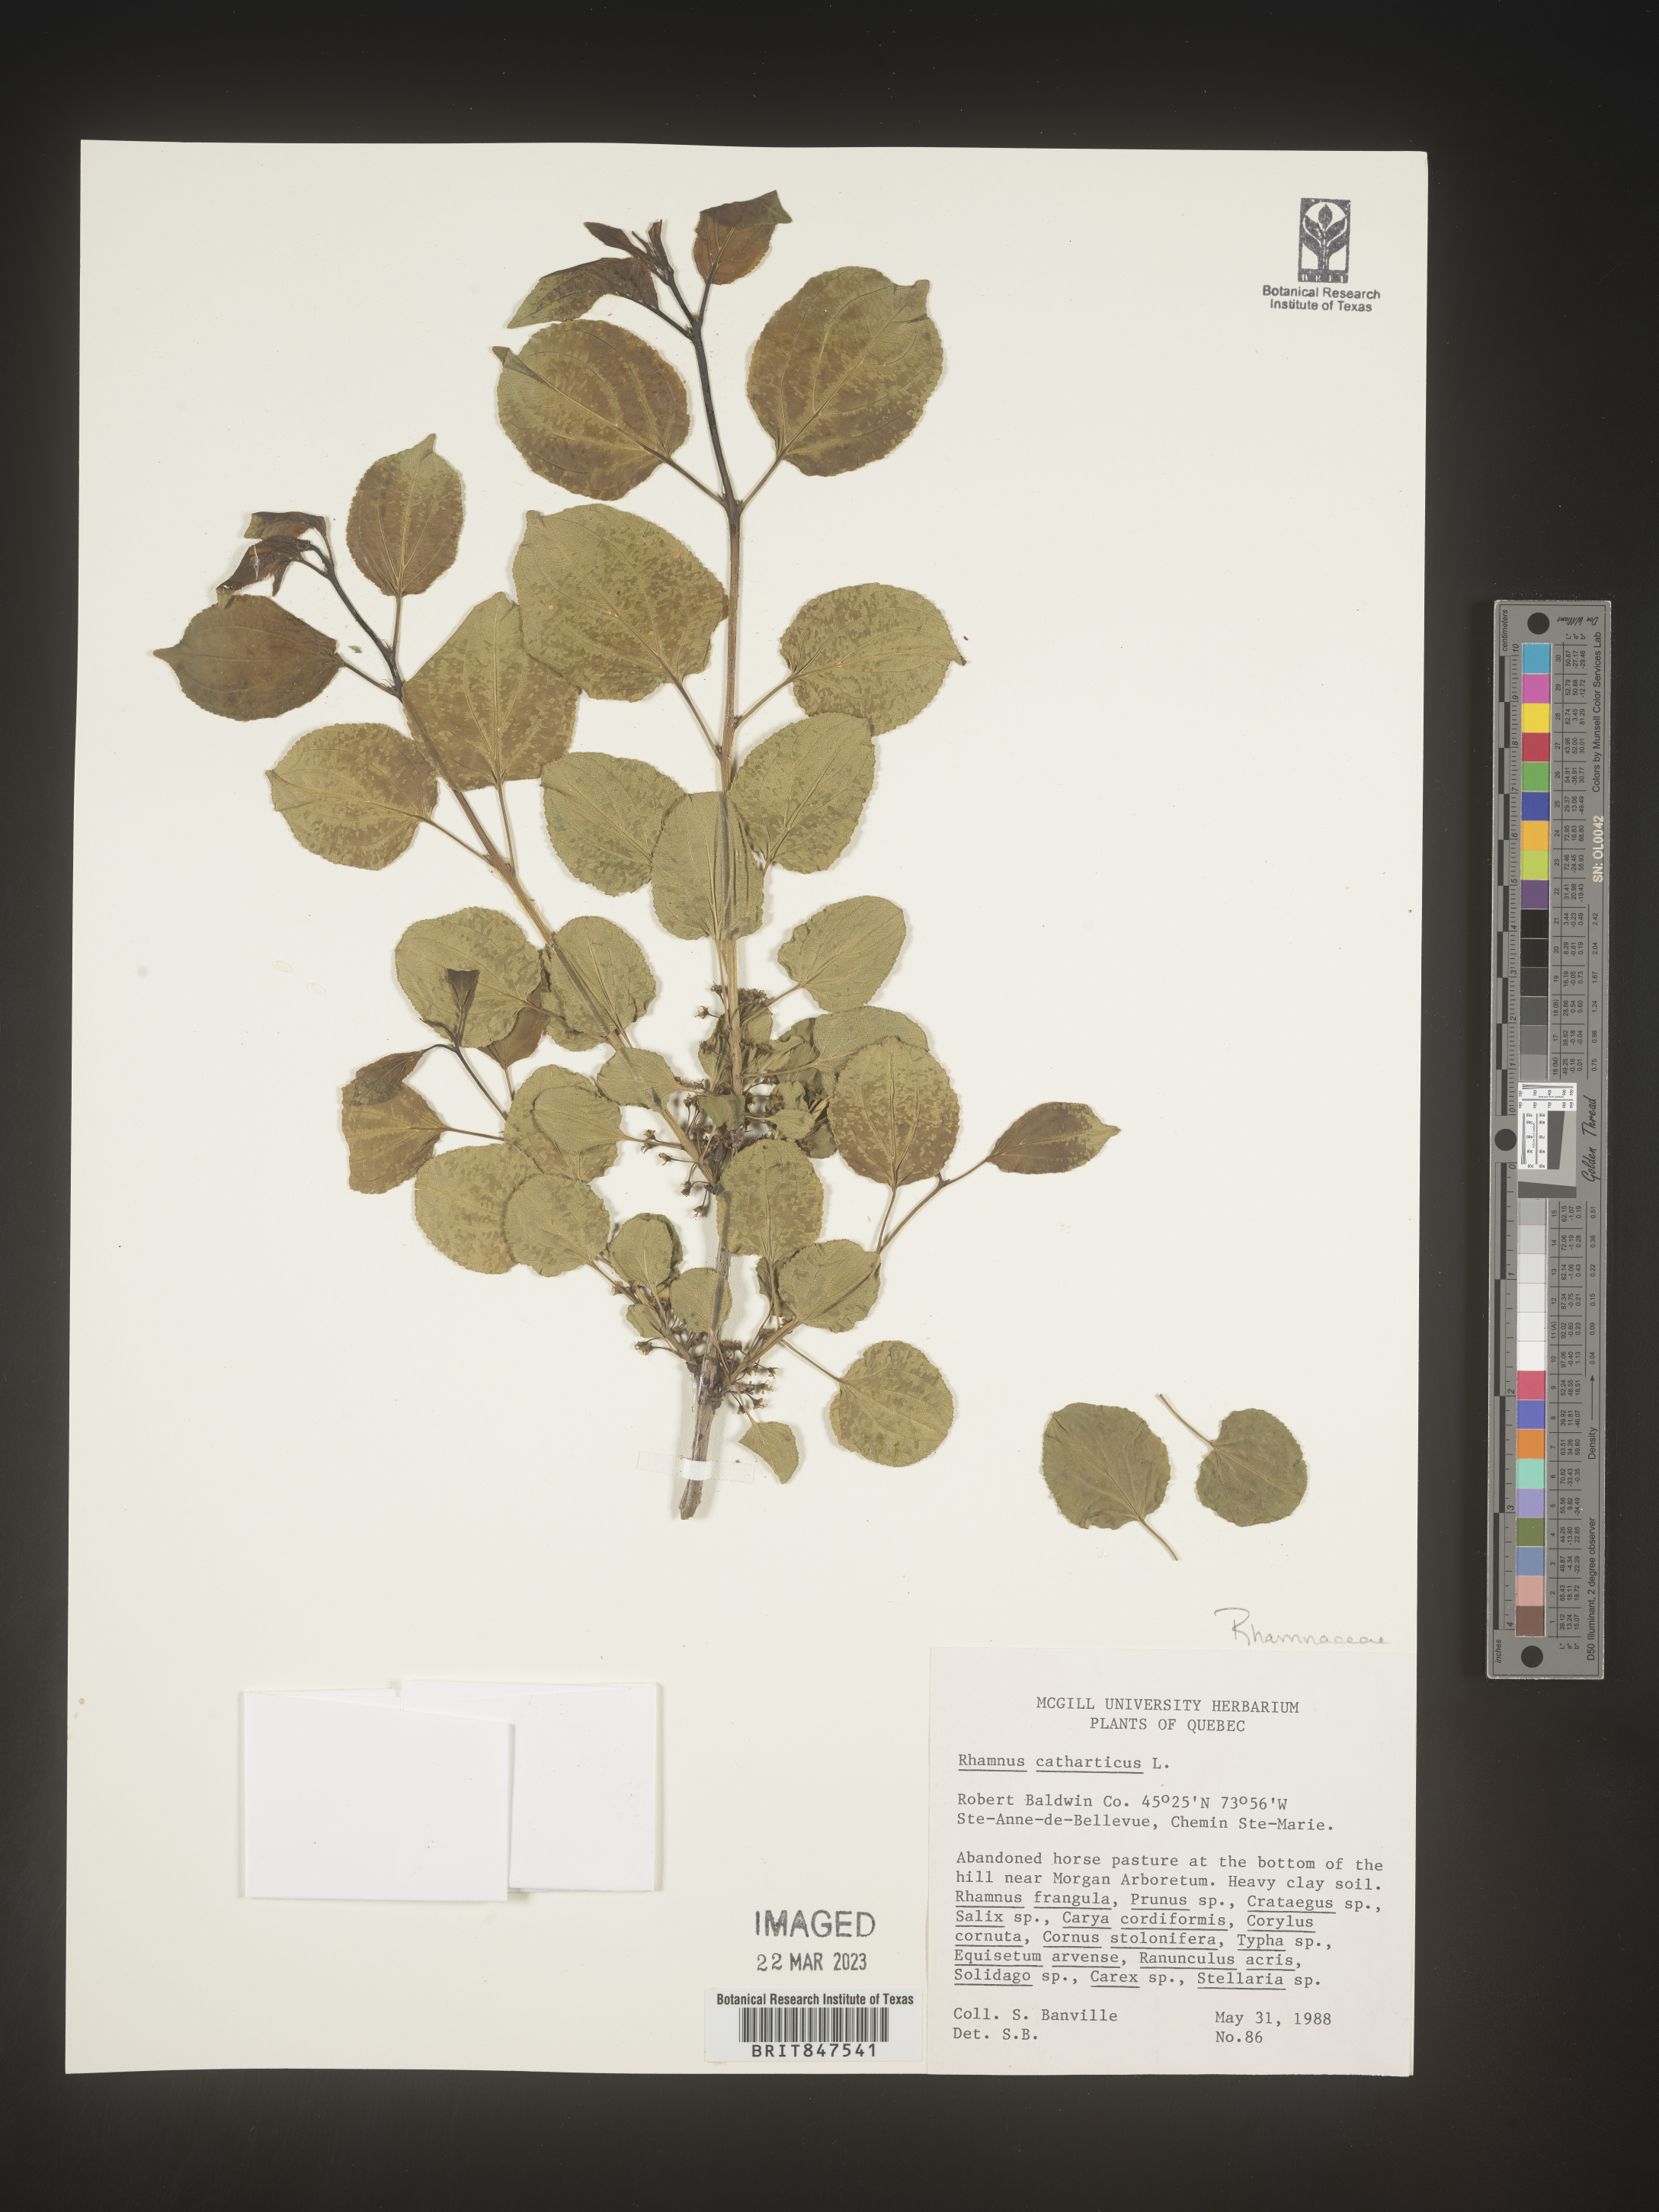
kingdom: Plantae
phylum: Tracheophyta
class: Magnoliopsida
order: Rosales
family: Rhamnaceae
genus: Rhamnus
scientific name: Rhamnus cathartica
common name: Common buckthorn
